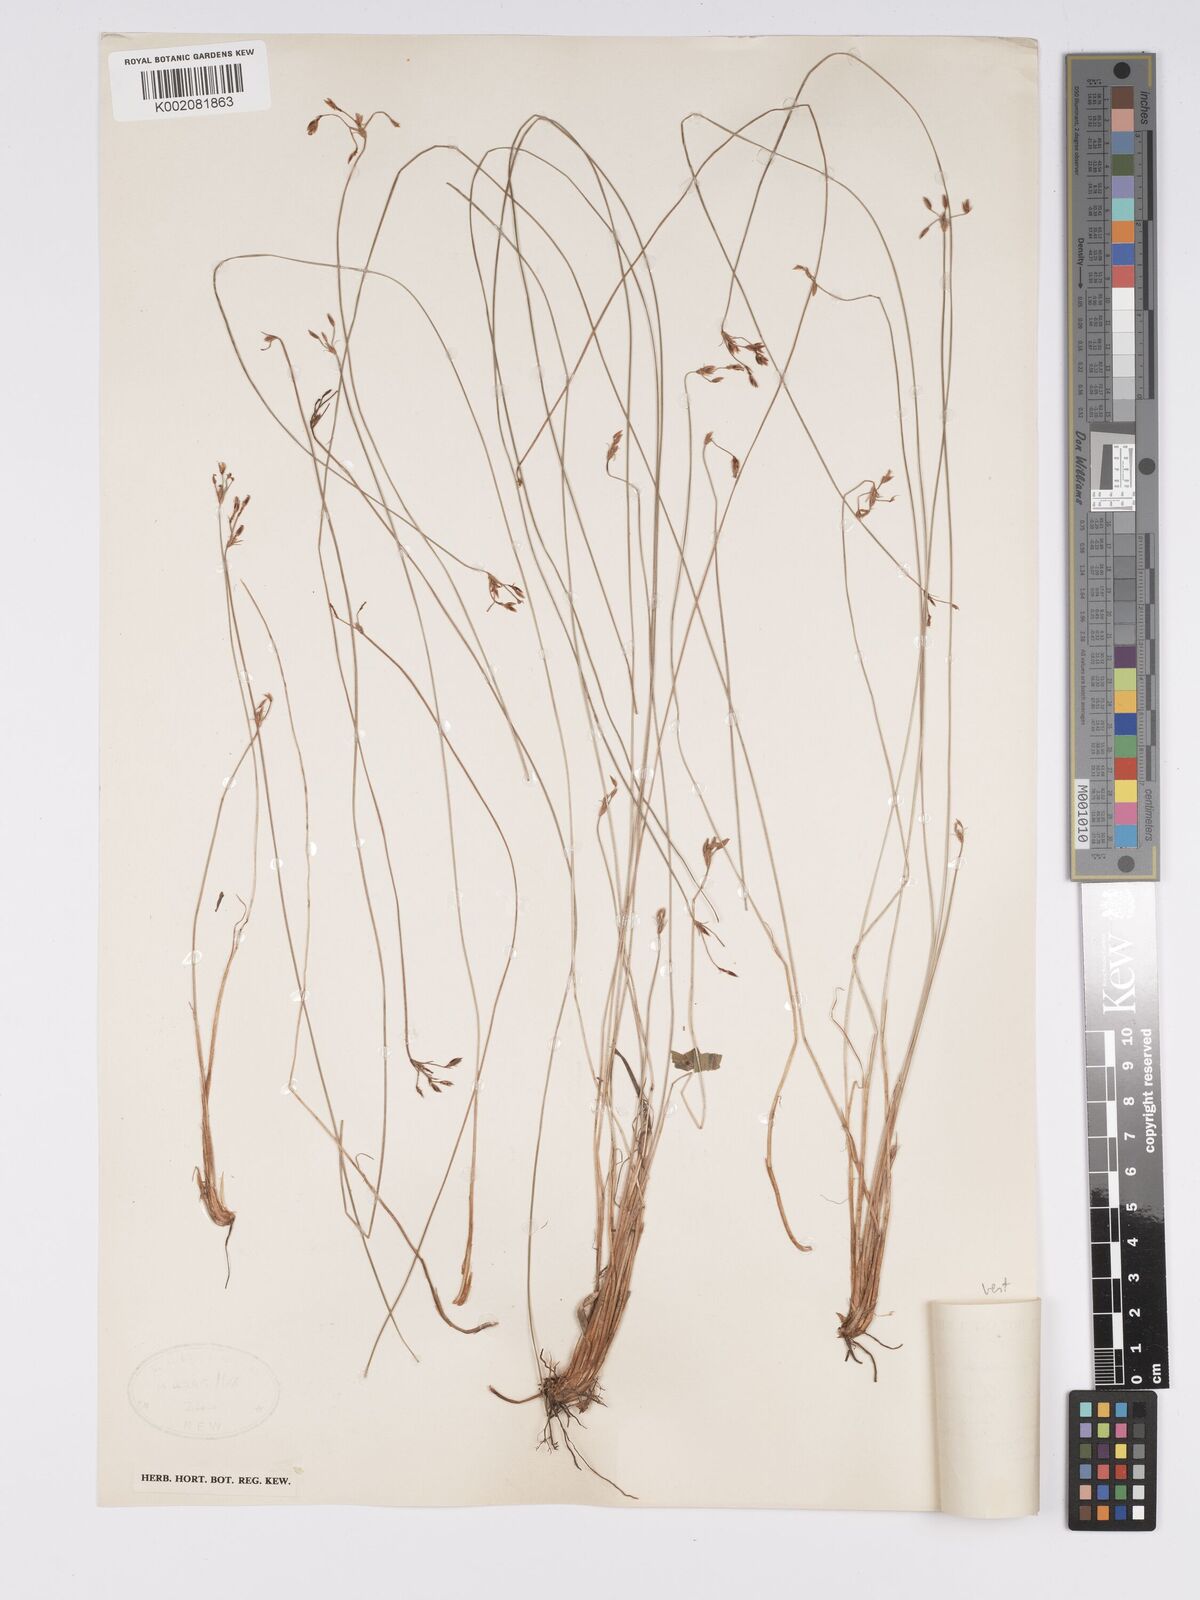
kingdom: Plantae
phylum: Tracheophyta
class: Liliopsida
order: Poales
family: Cyperaceae
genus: Bulbostylis
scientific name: Bulbostylis hispidula
